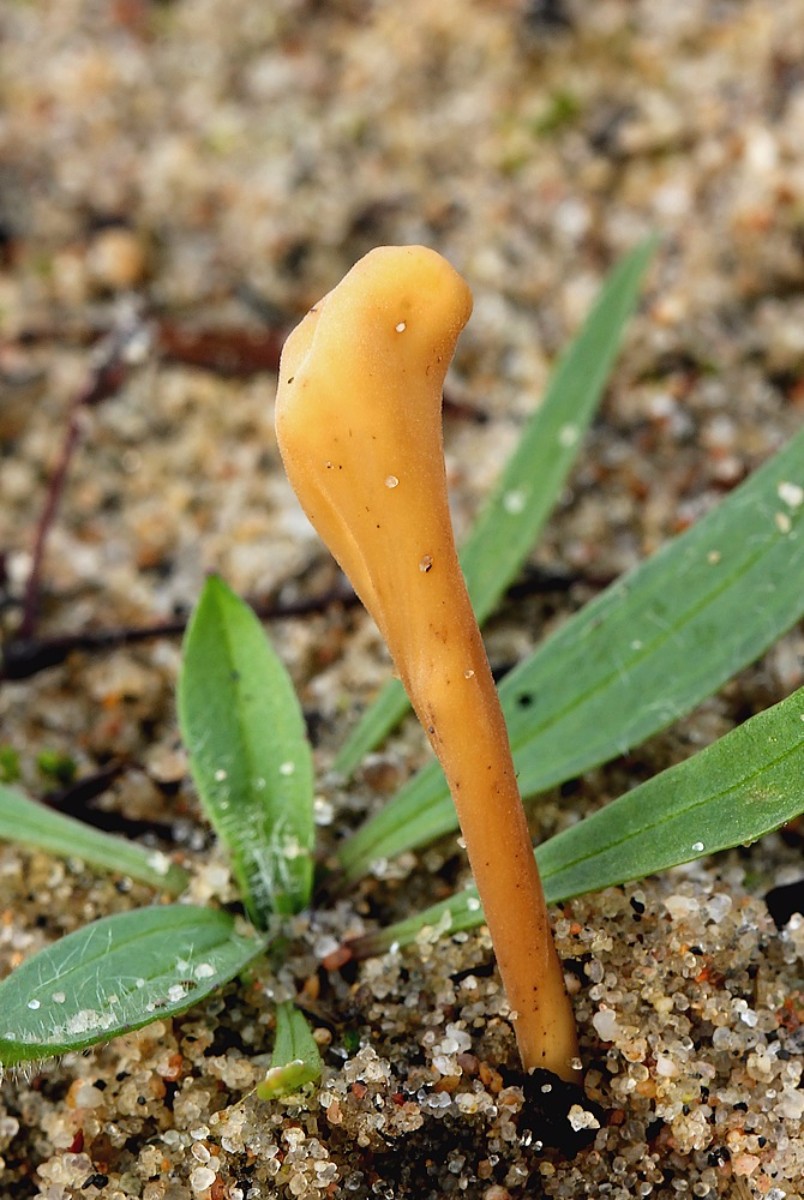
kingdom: Fungi
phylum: Basidiomycota
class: Agaricomycetes
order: Agaricales
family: Typhulaceae
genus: Macrotyphula
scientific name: Macrotyphula
